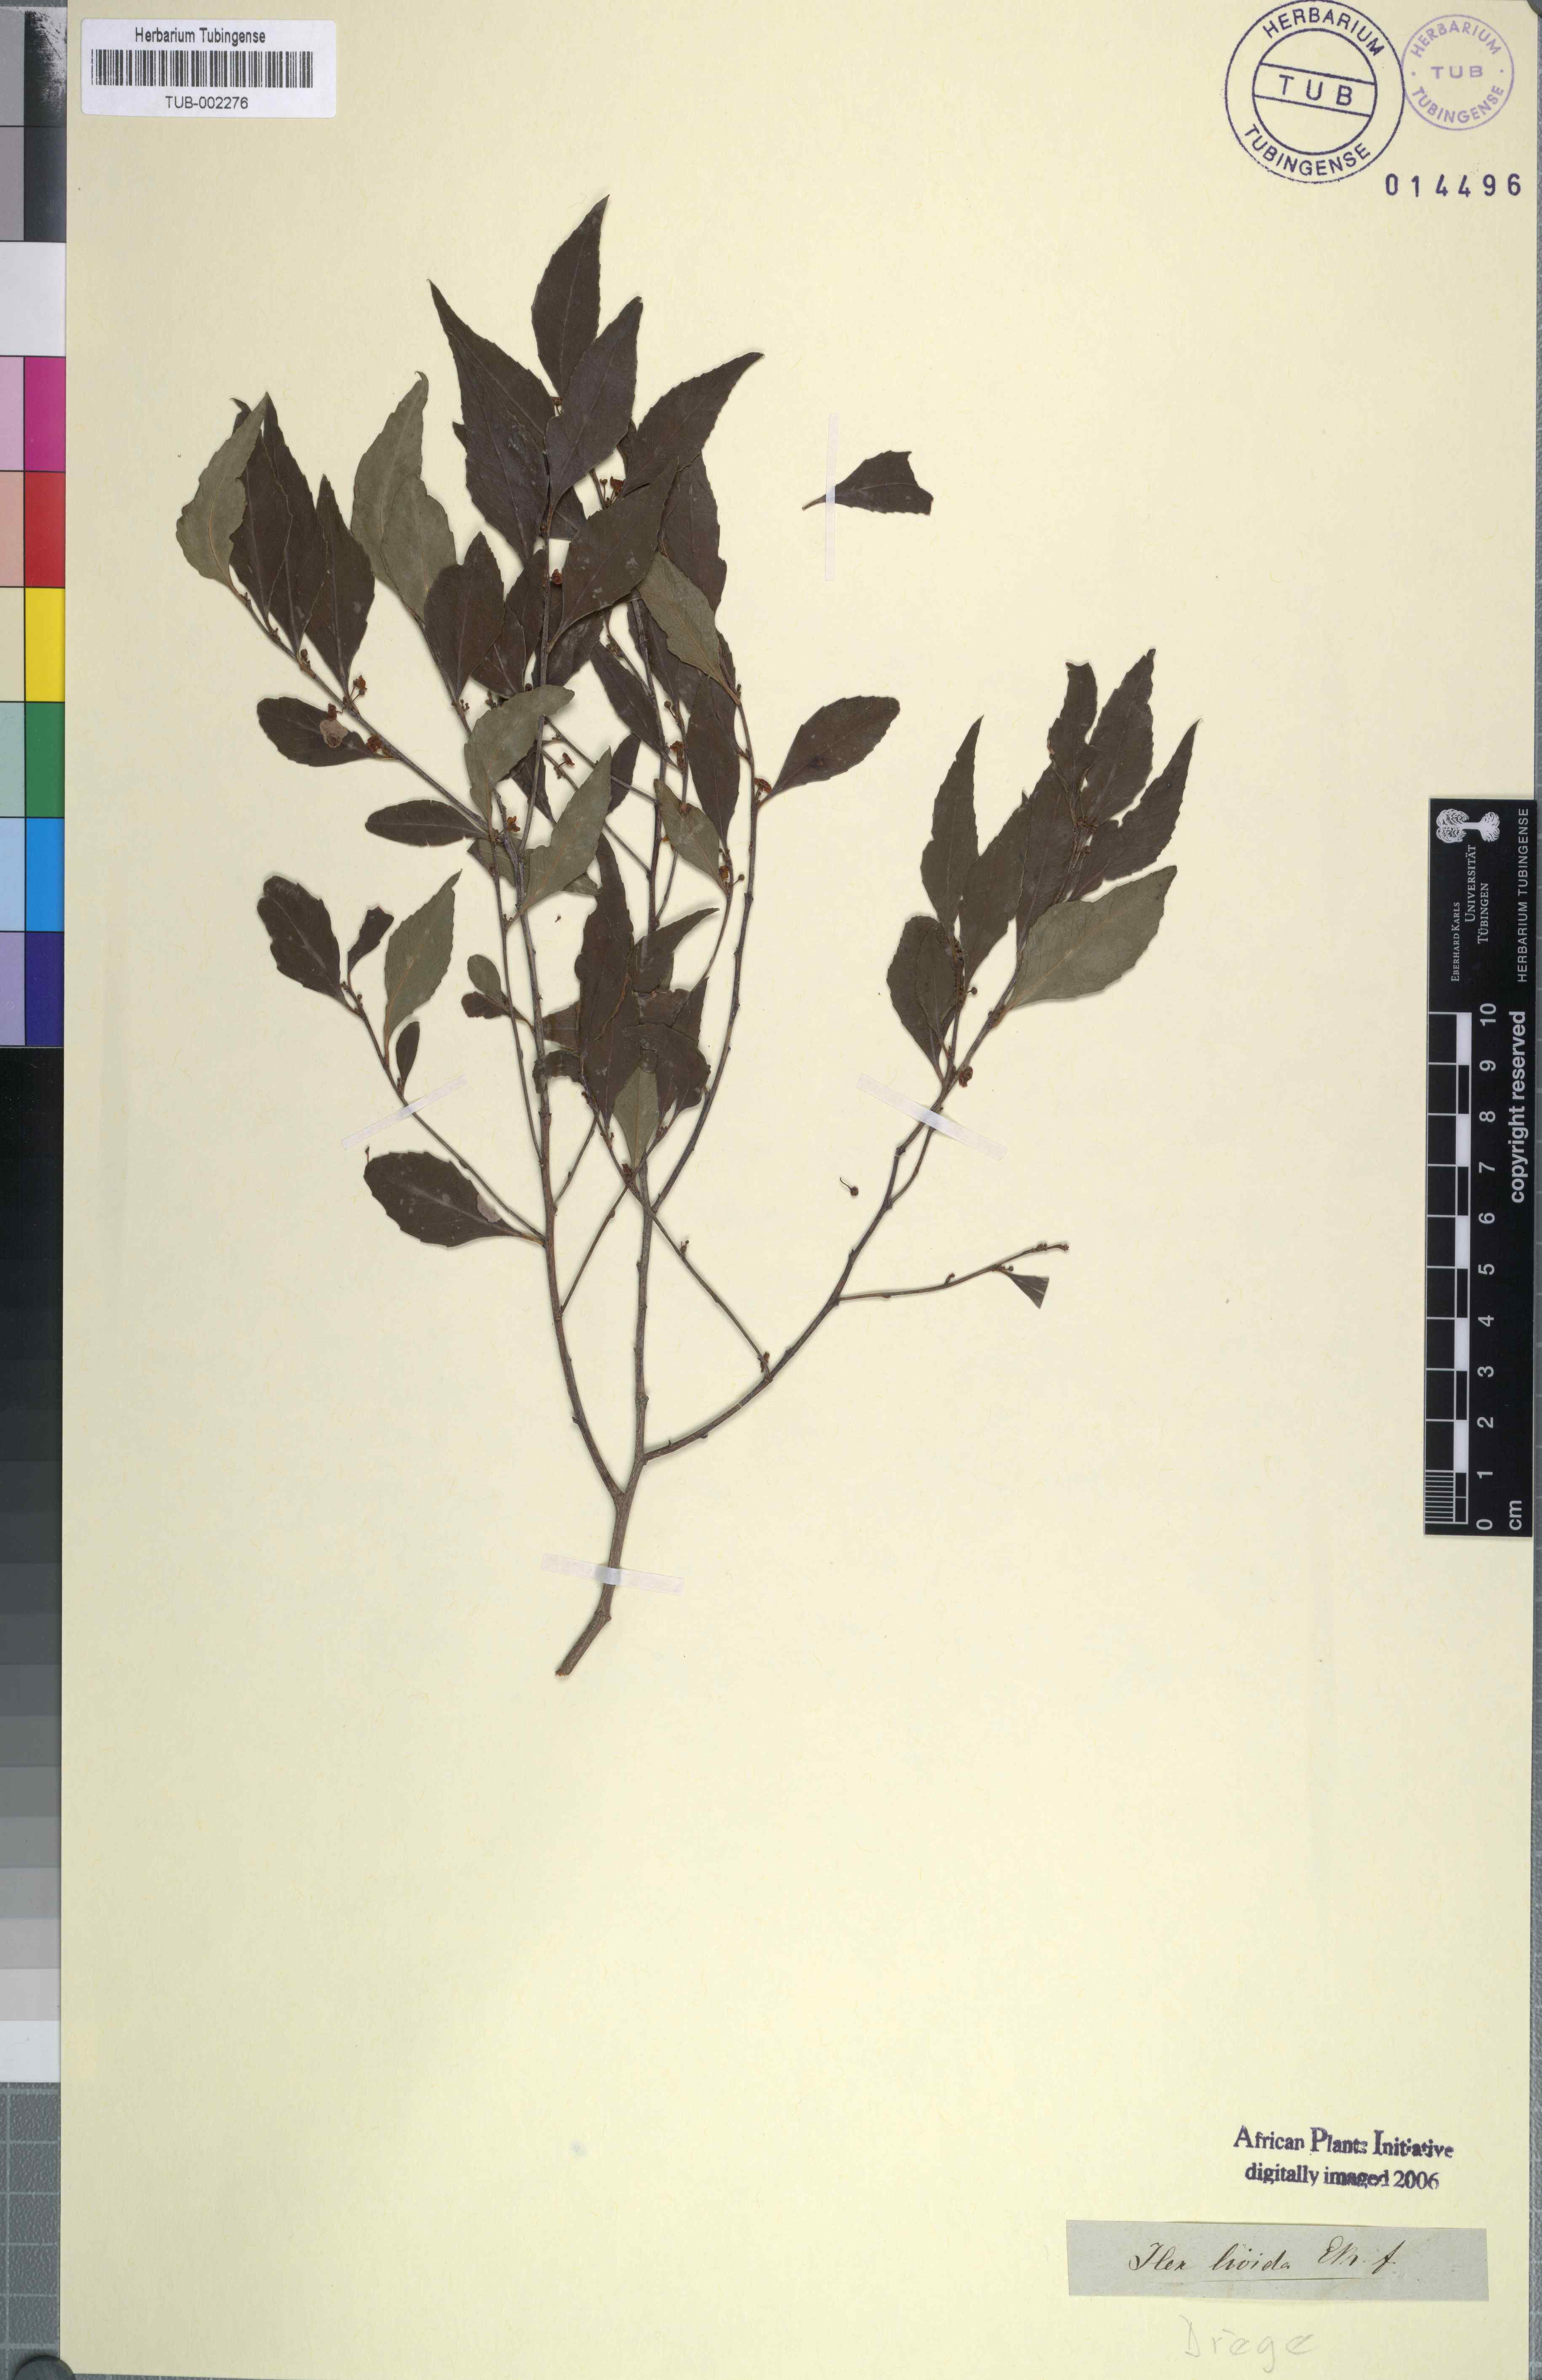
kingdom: Plantae
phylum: Tracheophyta
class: Magnoliopsida
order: Celastrales
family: Celastraceae
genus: Gymnosporia
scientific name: Gymnosporia acuminata
